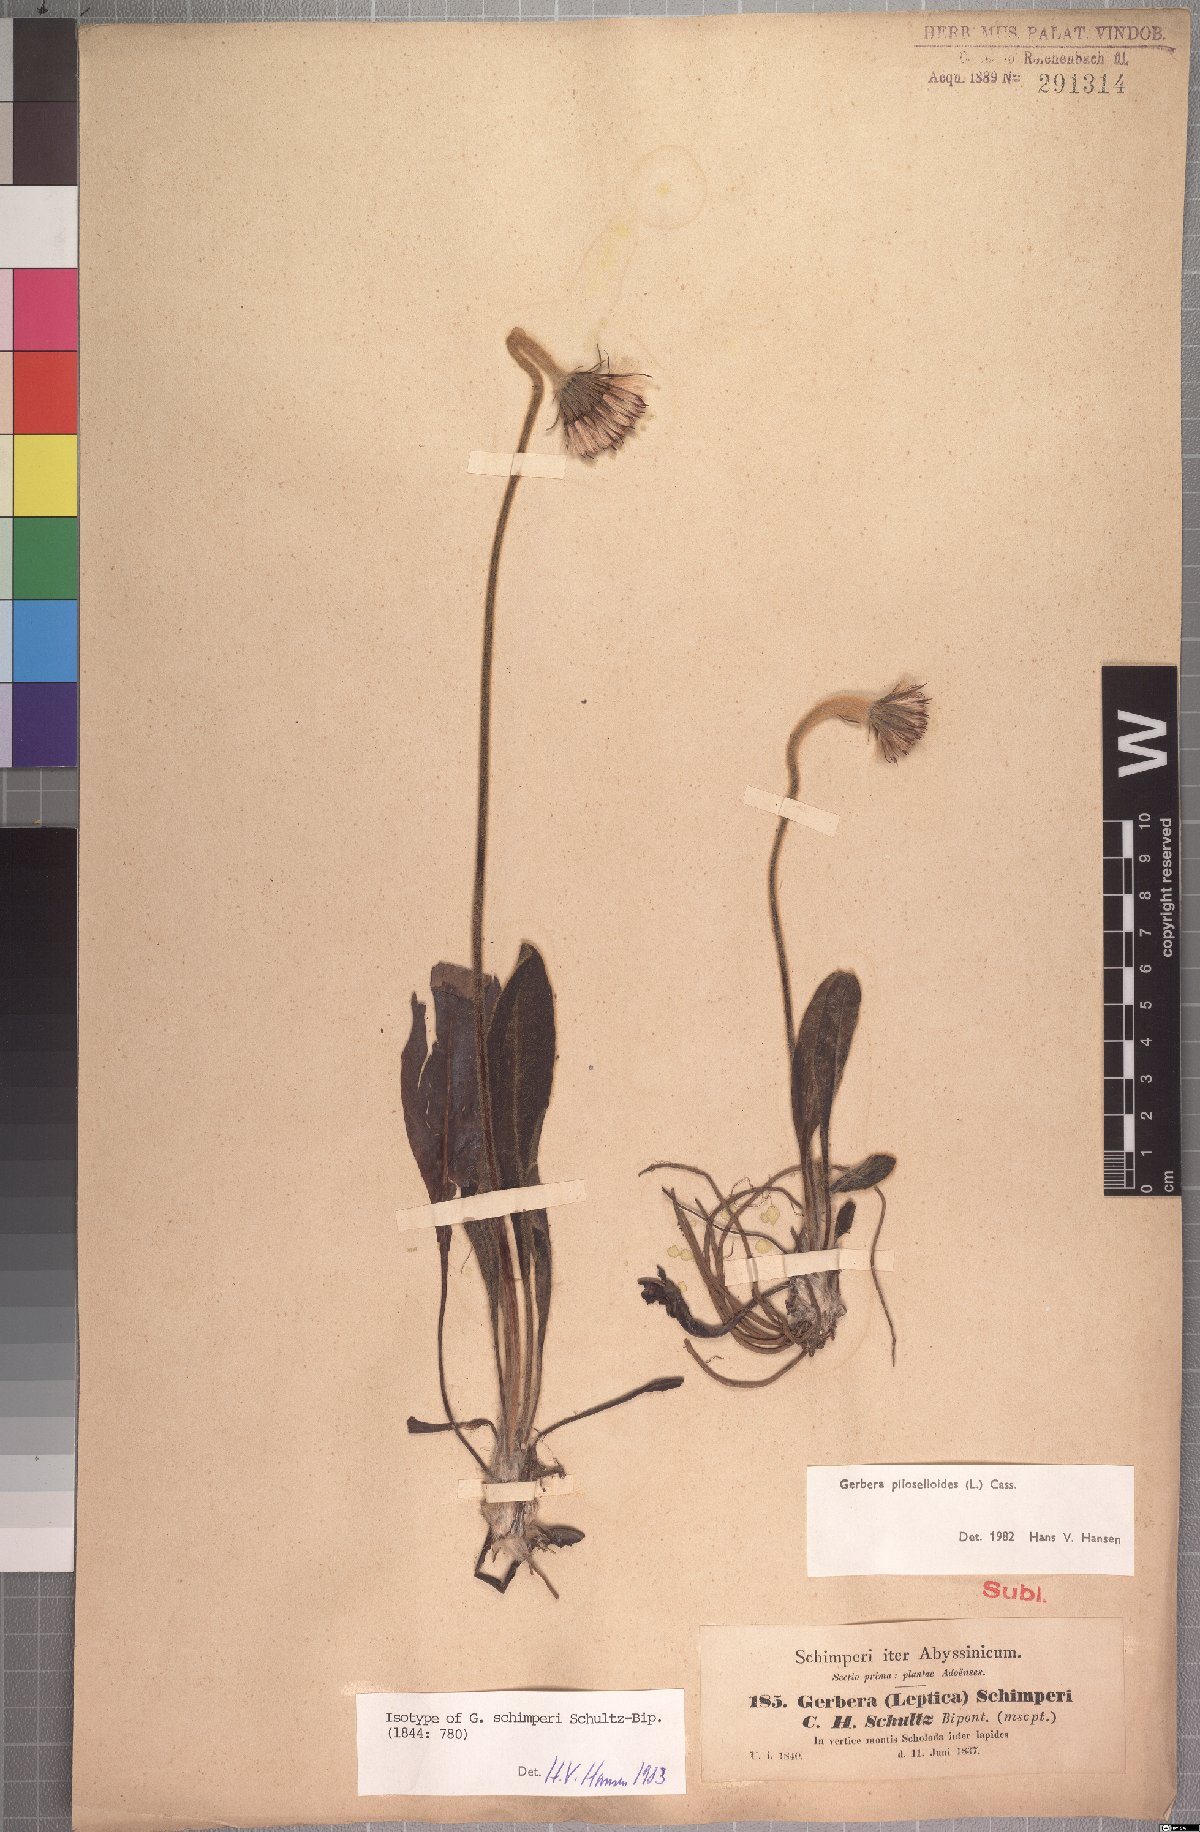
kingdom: Plantae
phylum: Tracheophyta
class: Magnoliopsida
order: Asterales
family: Asteraceae
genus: Piloselloides
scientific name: Piloselloides hirsuta
